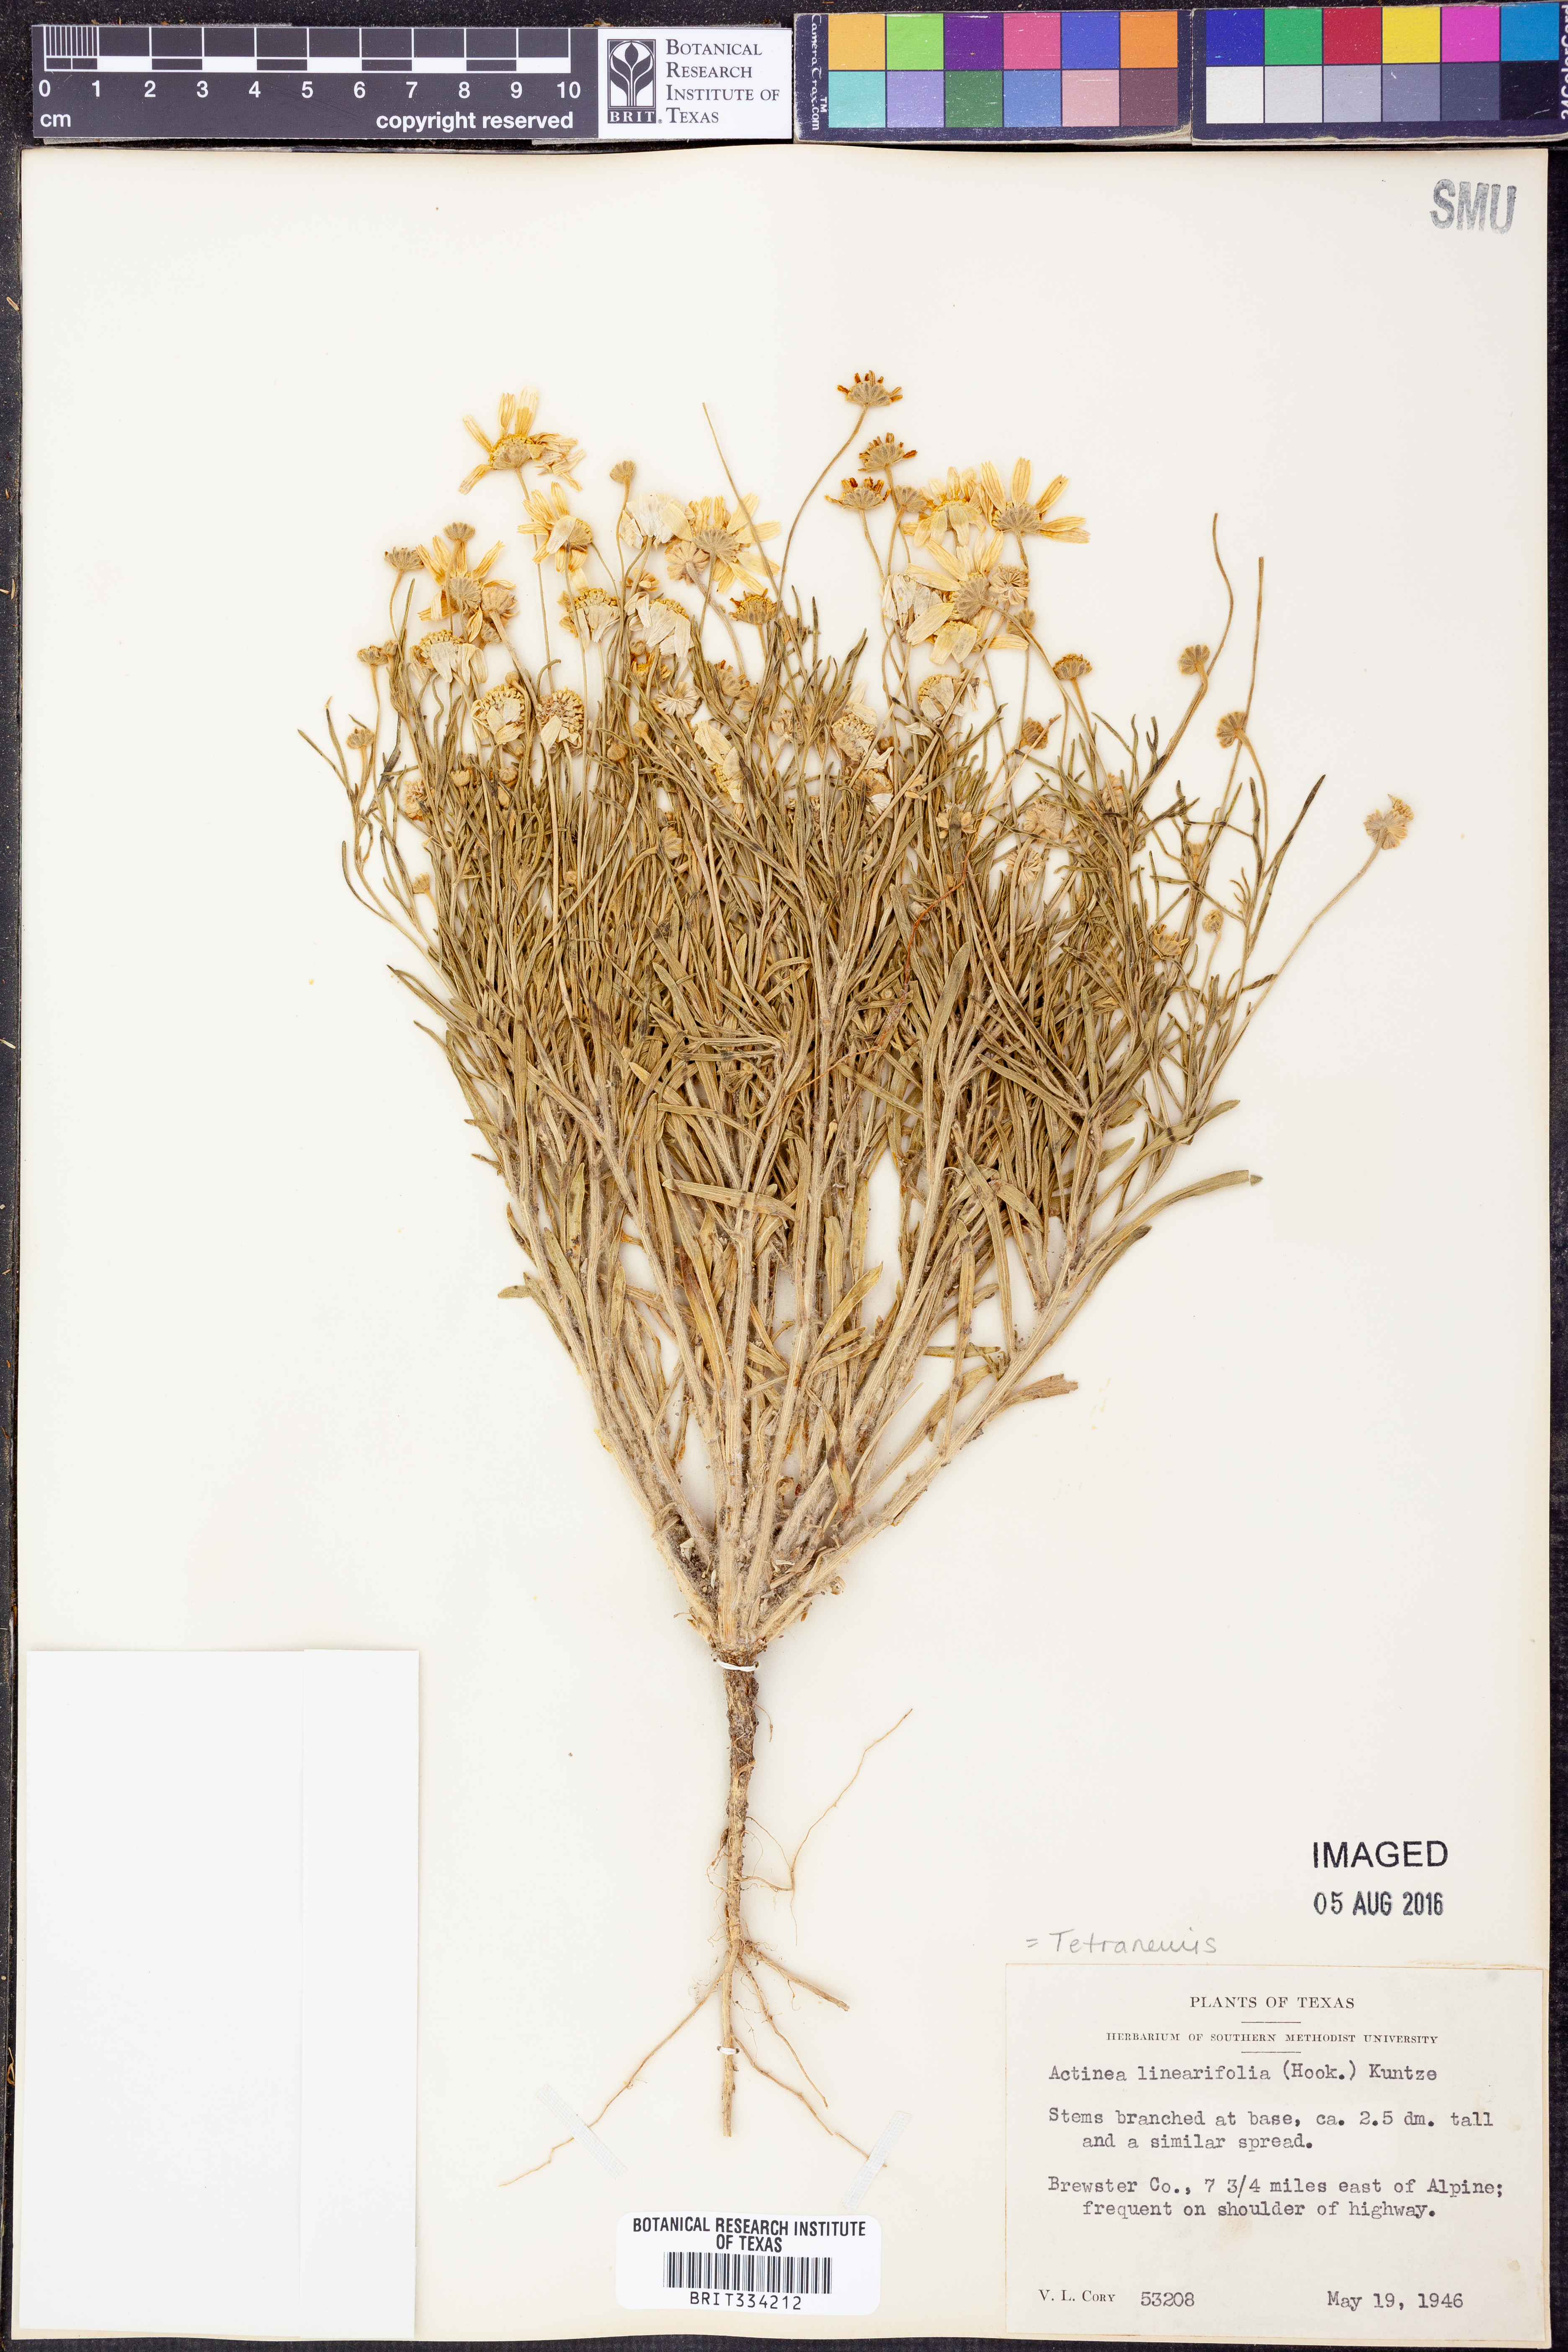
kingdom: Plantae
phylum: Tracheophyta
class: Magnoliopsida
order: Asterales
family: Asteraceae
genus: Tetraneuris
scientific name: Tetraneuris linearifolia
